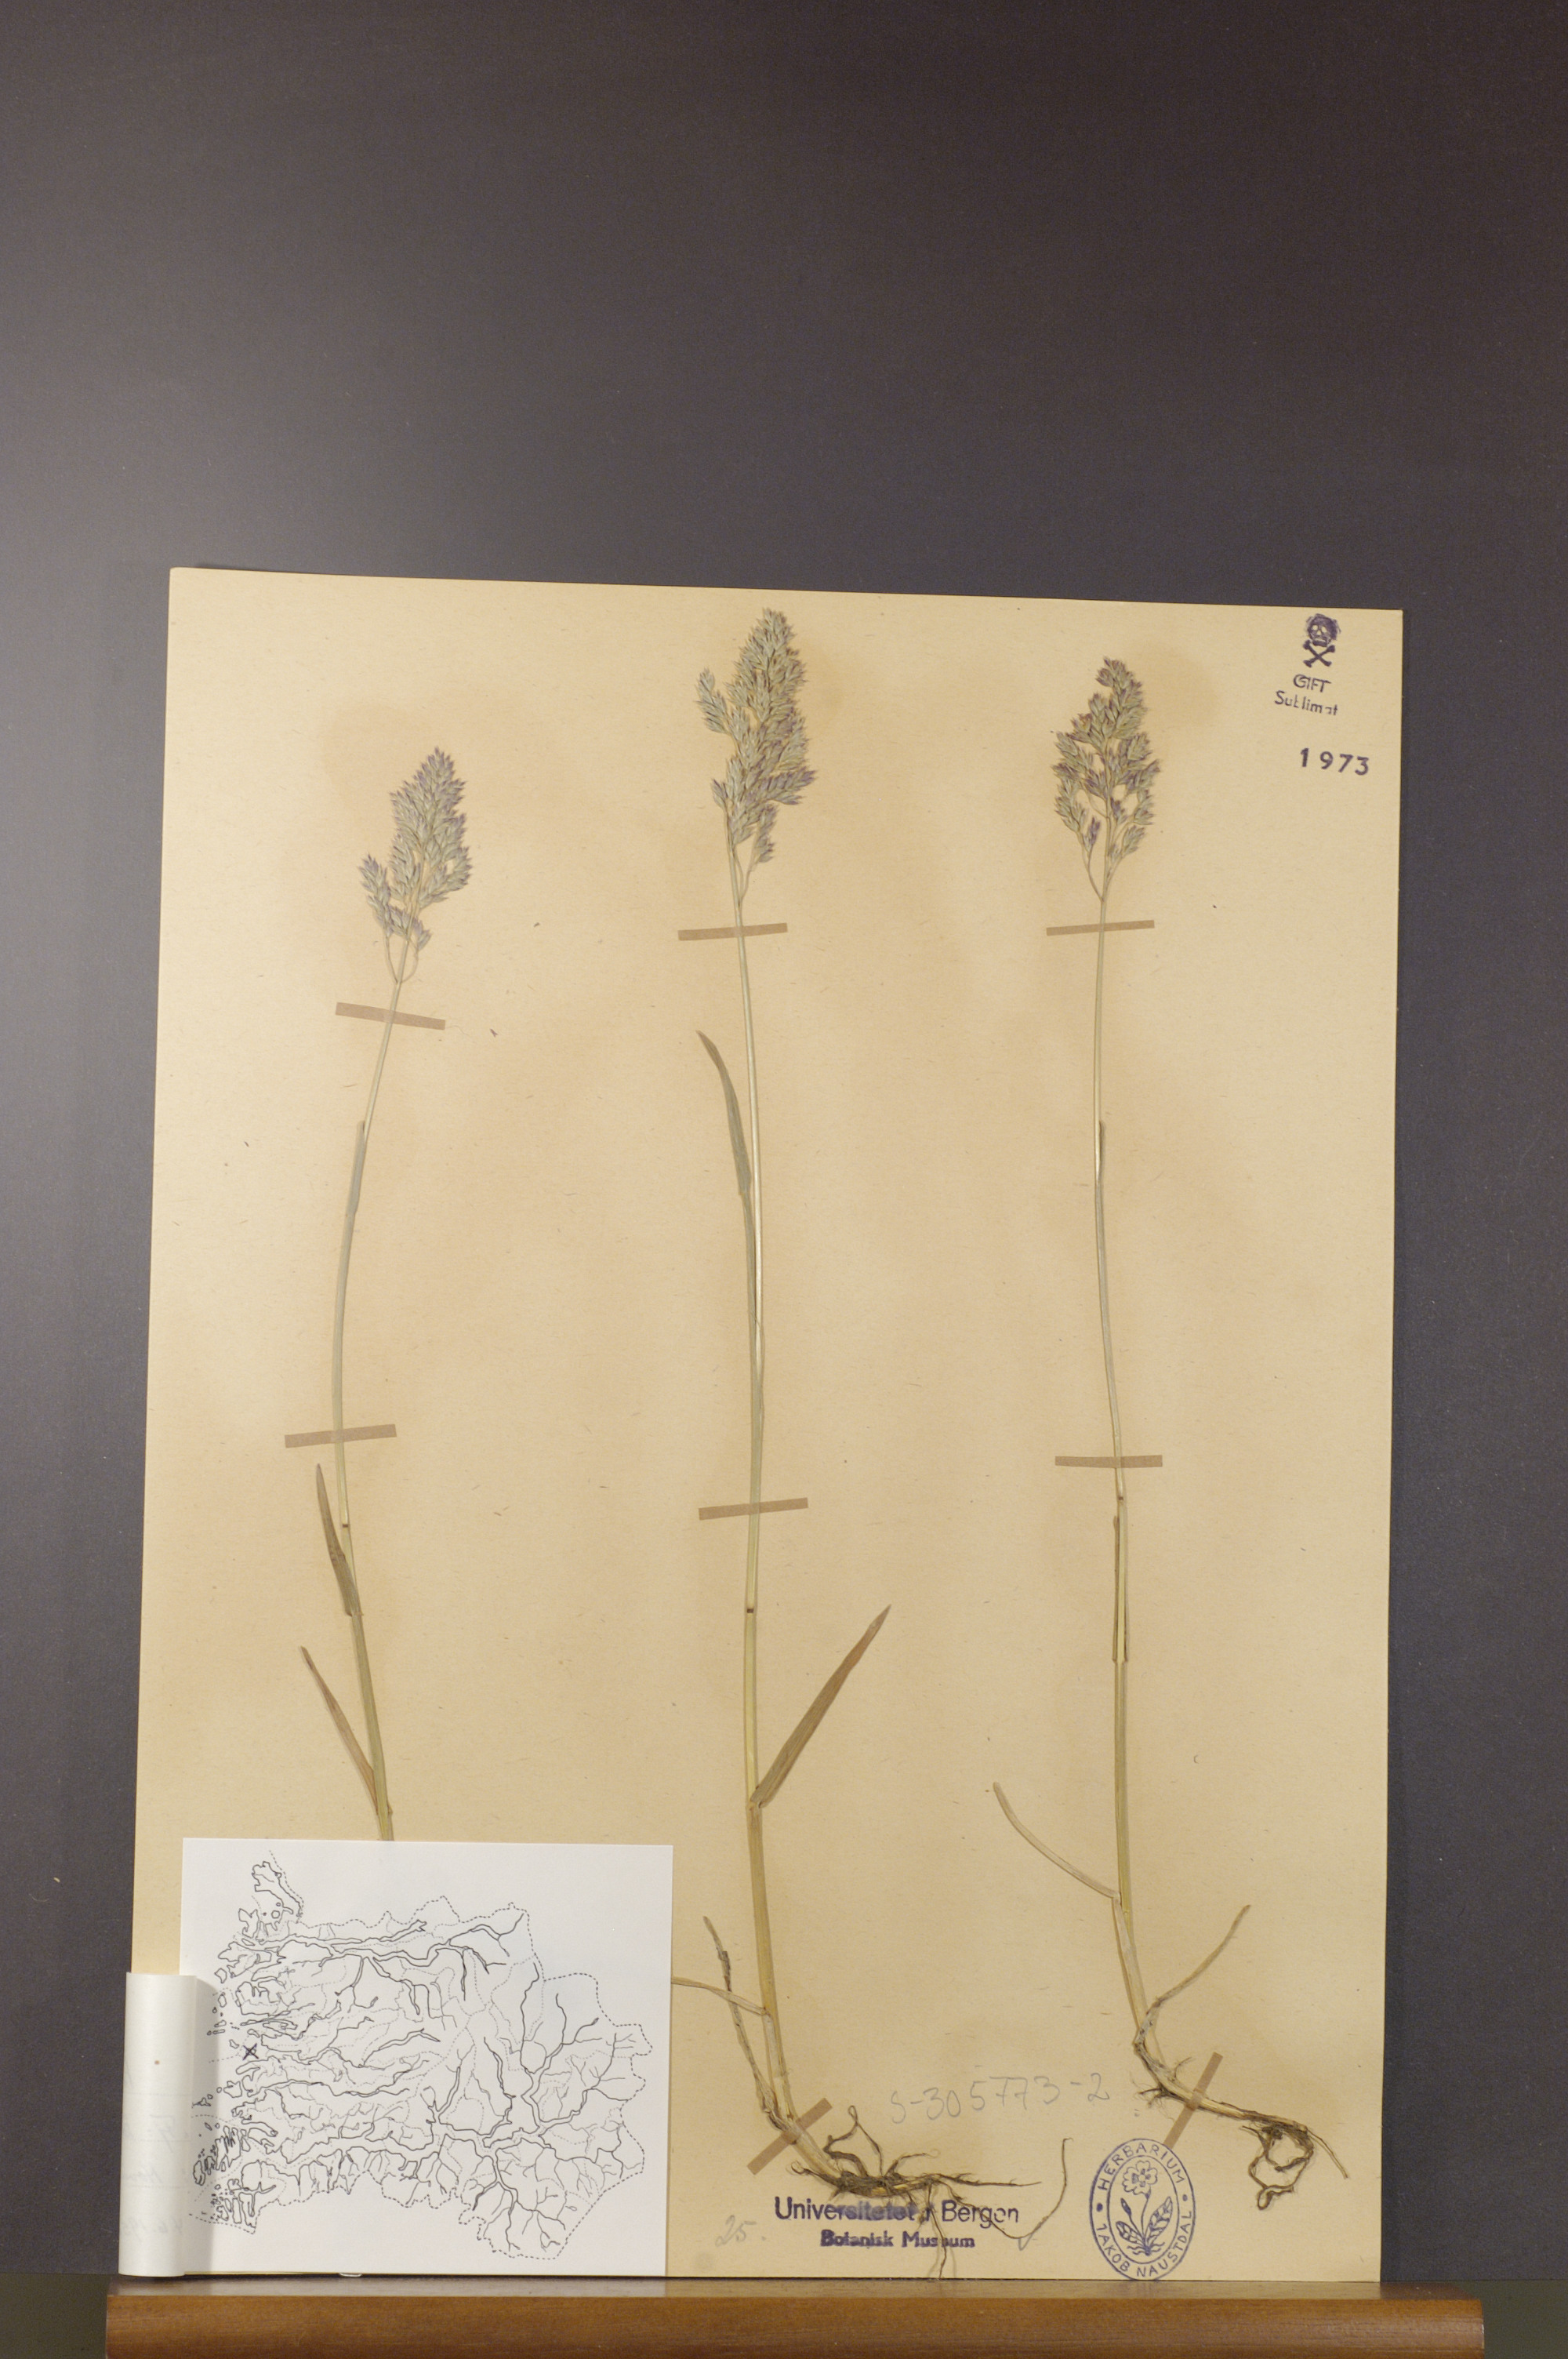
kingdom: Plantae
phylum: Tracheophyta
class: Liliopsida
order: Poales
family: Poaceae
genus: Poa
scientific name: Poa pratensis
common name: Kentucky bluegrass
